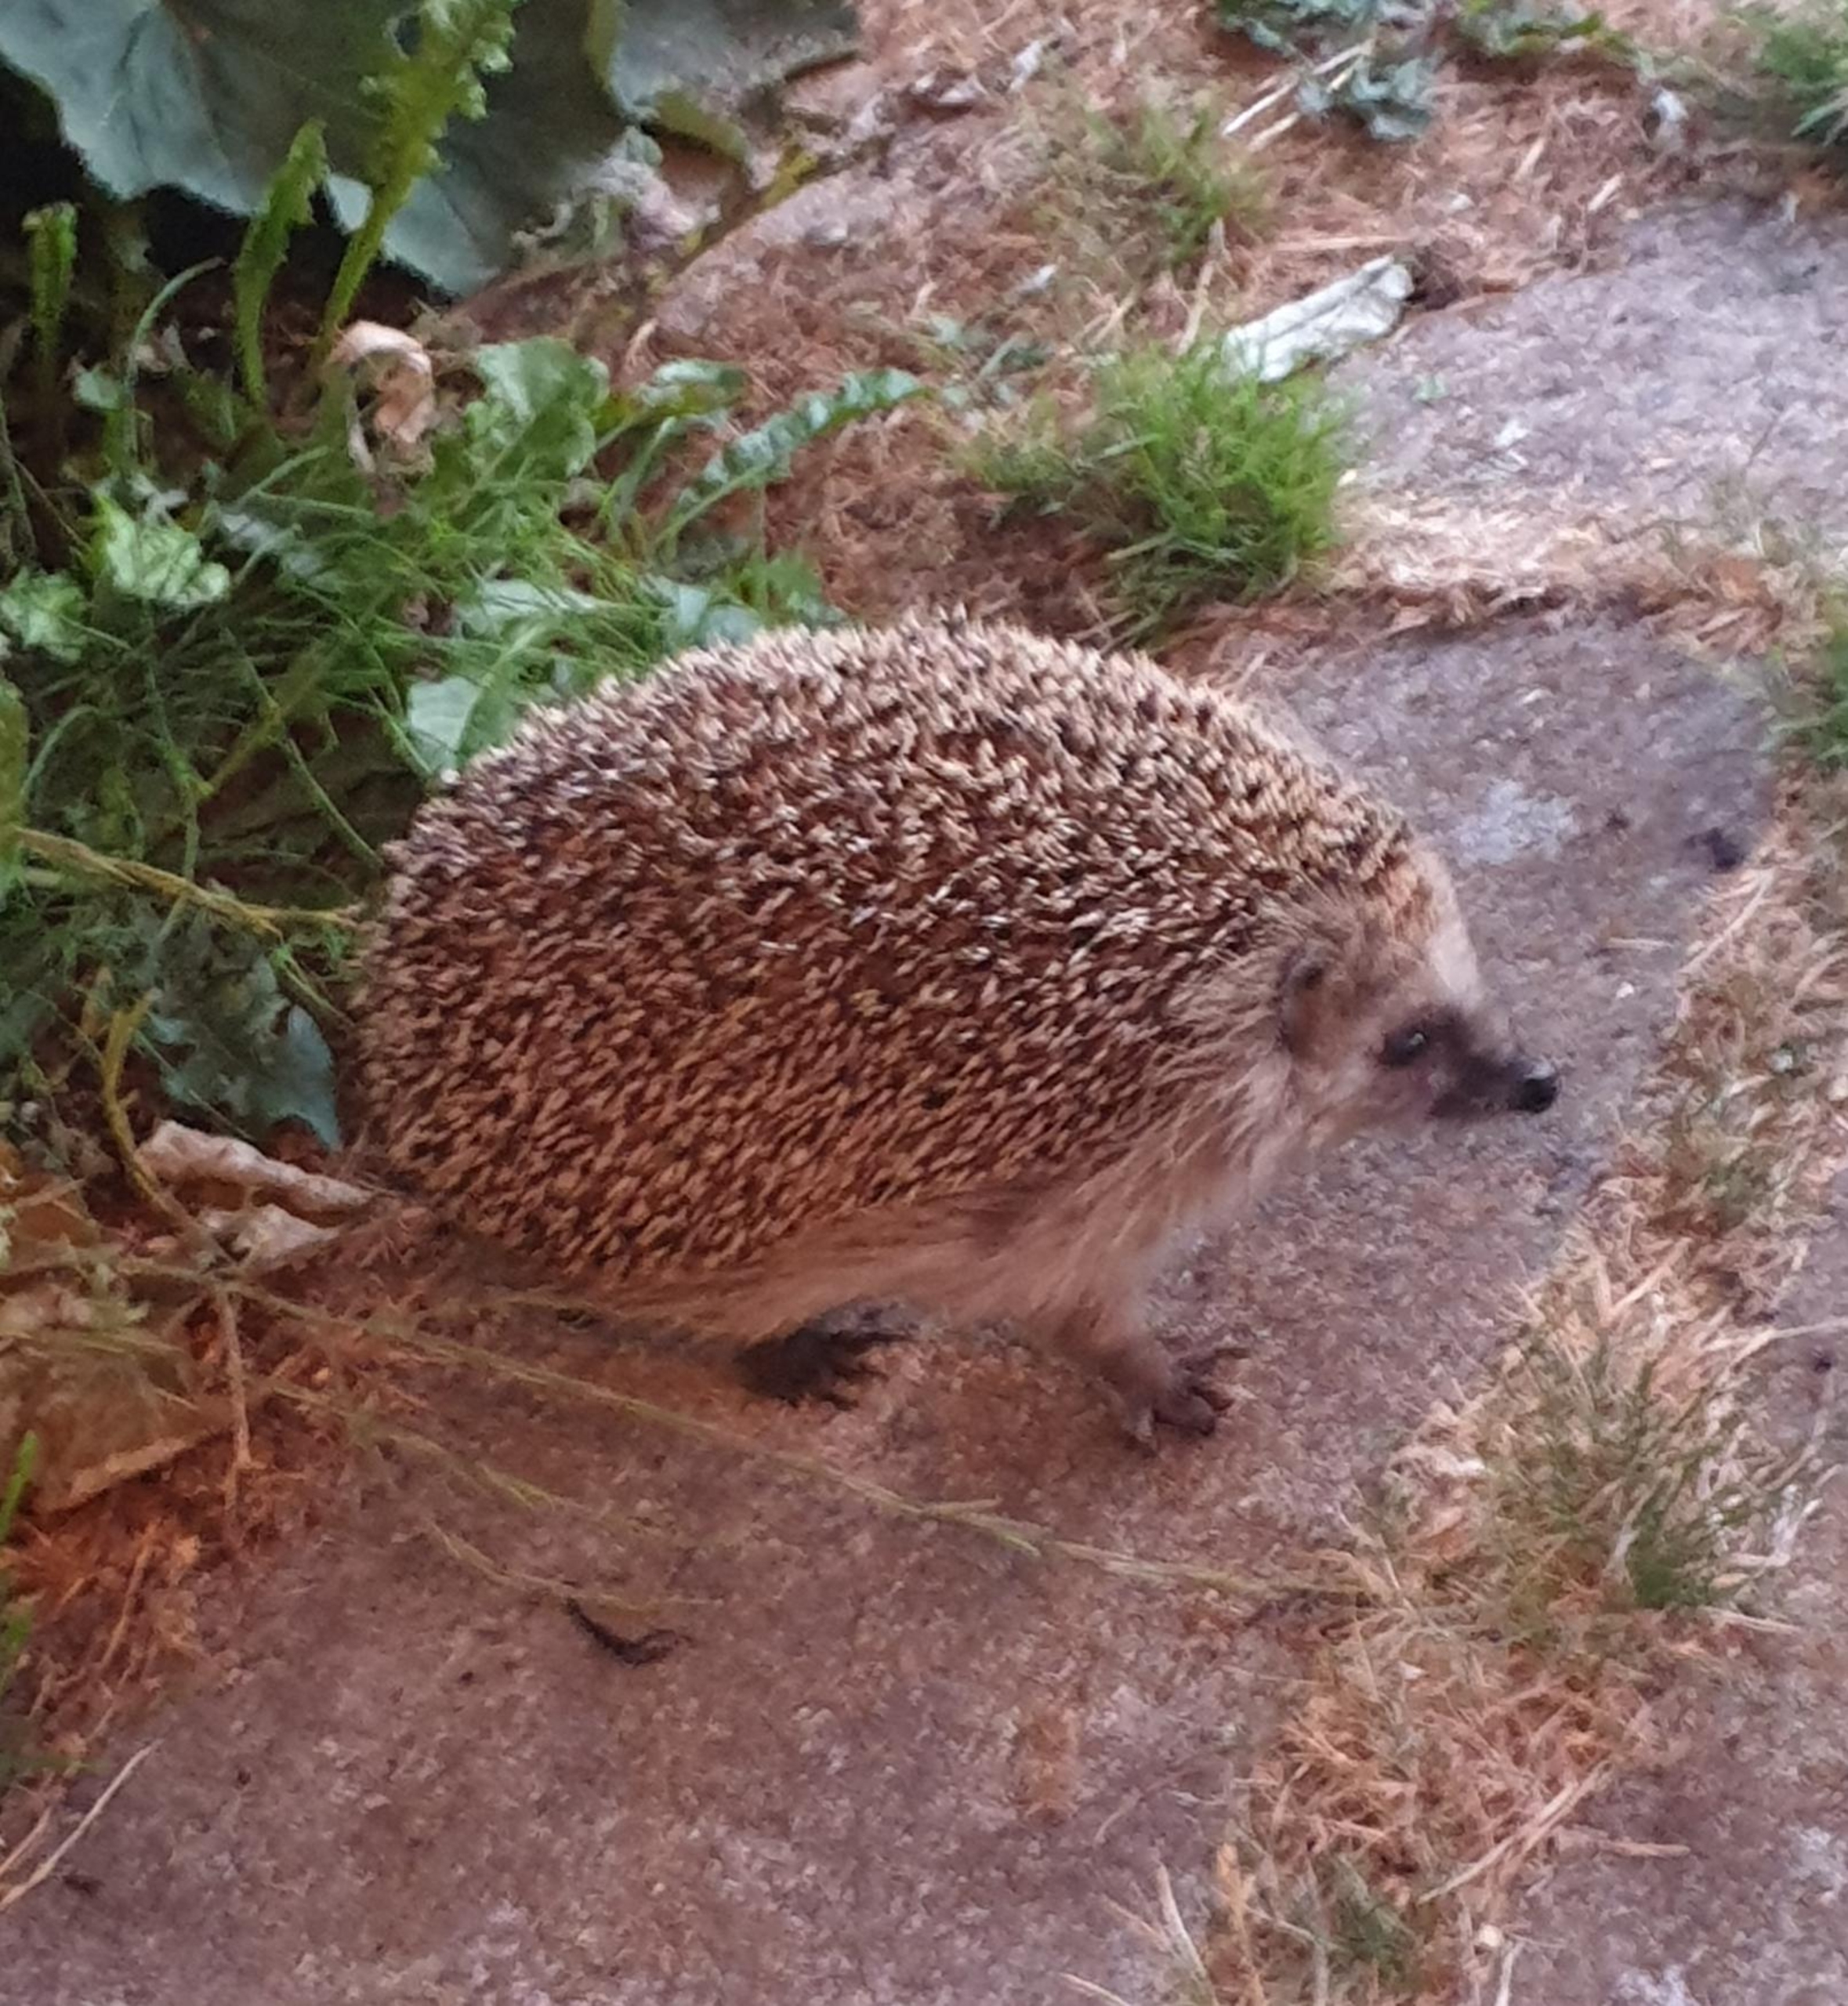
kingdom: Animalia
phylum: Chordata
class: Mammalia
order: Erinaceomorpha
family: Erinaceidae
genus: Erinaceus
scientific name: Erinaceus europaeus
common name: Pindsvin
